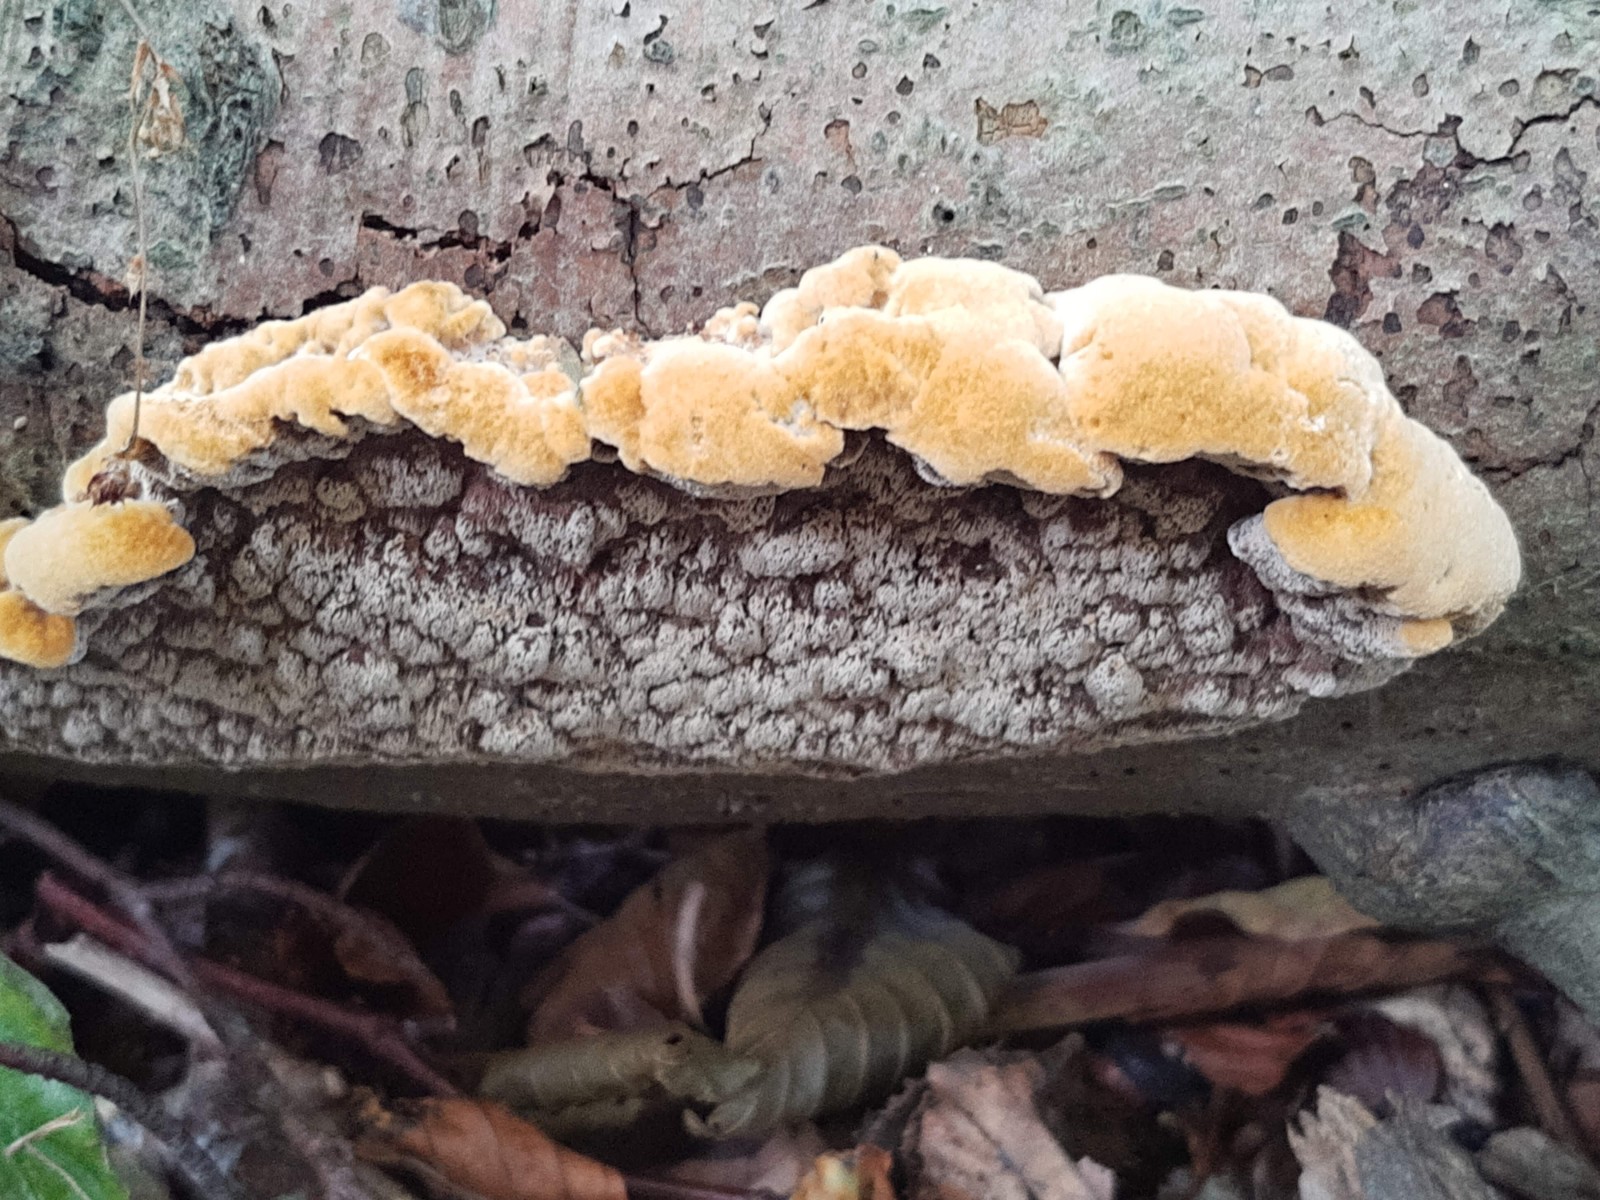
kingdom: Fungi
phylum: Basidiomycota
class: Agaricomycetes
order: Hymenochaetales
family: Hymenochaetaceae
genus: Mensularia
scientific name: Mensularia nodulosa
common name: bøge-spejlporesvamp
